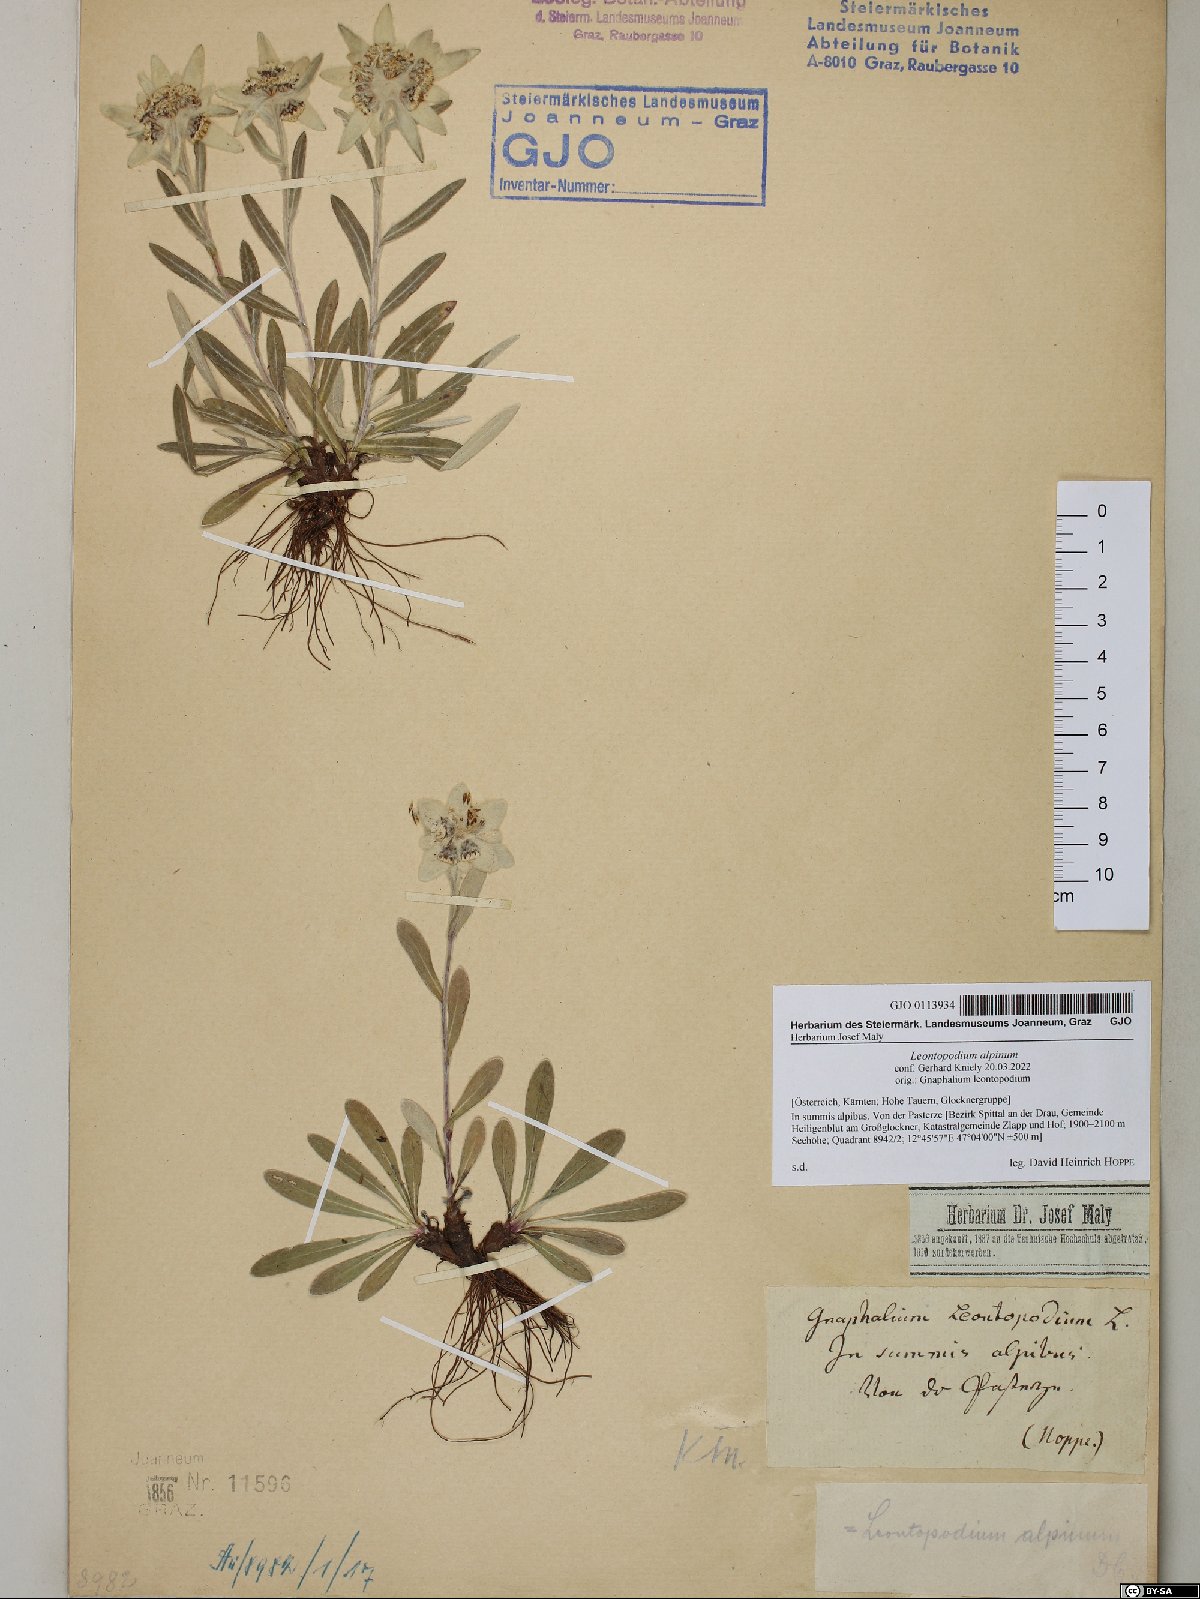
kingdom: Plantae
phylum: Tracheophyta
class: Magnoliopsida
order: Asterales
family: Asteraceae
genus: Leontopodium
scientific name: Leontopodium nivale
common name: Edelweiss
